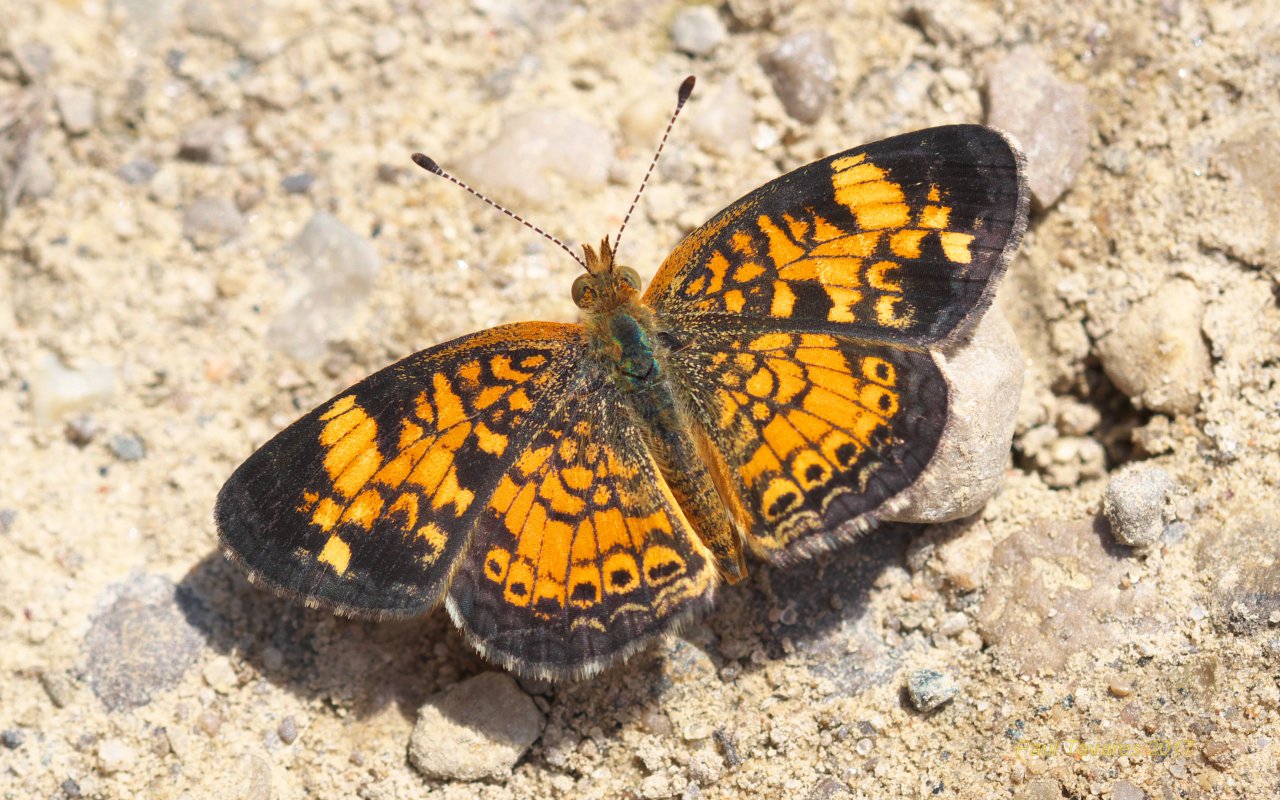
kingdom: Animalia
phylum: Arthropoda
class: Insecta
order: Lepidoptera
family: Nymphalidae
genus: Phyciodes
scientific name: Phyciodes tharos
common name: Pearl Crescent
